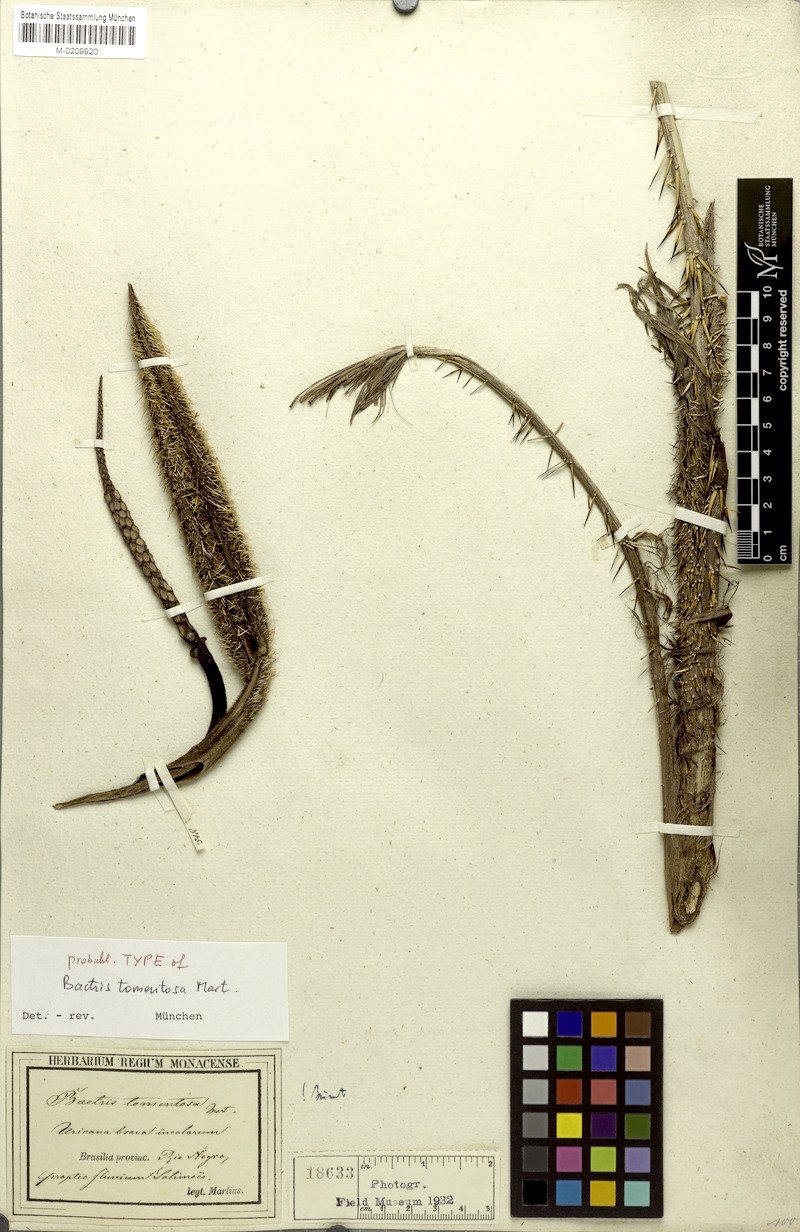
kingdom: Plantae
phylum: Tracheophyta
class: Liliopsida
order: Arecales
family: Arecaceae
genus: Bactris
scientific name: Bactris tomentosa
